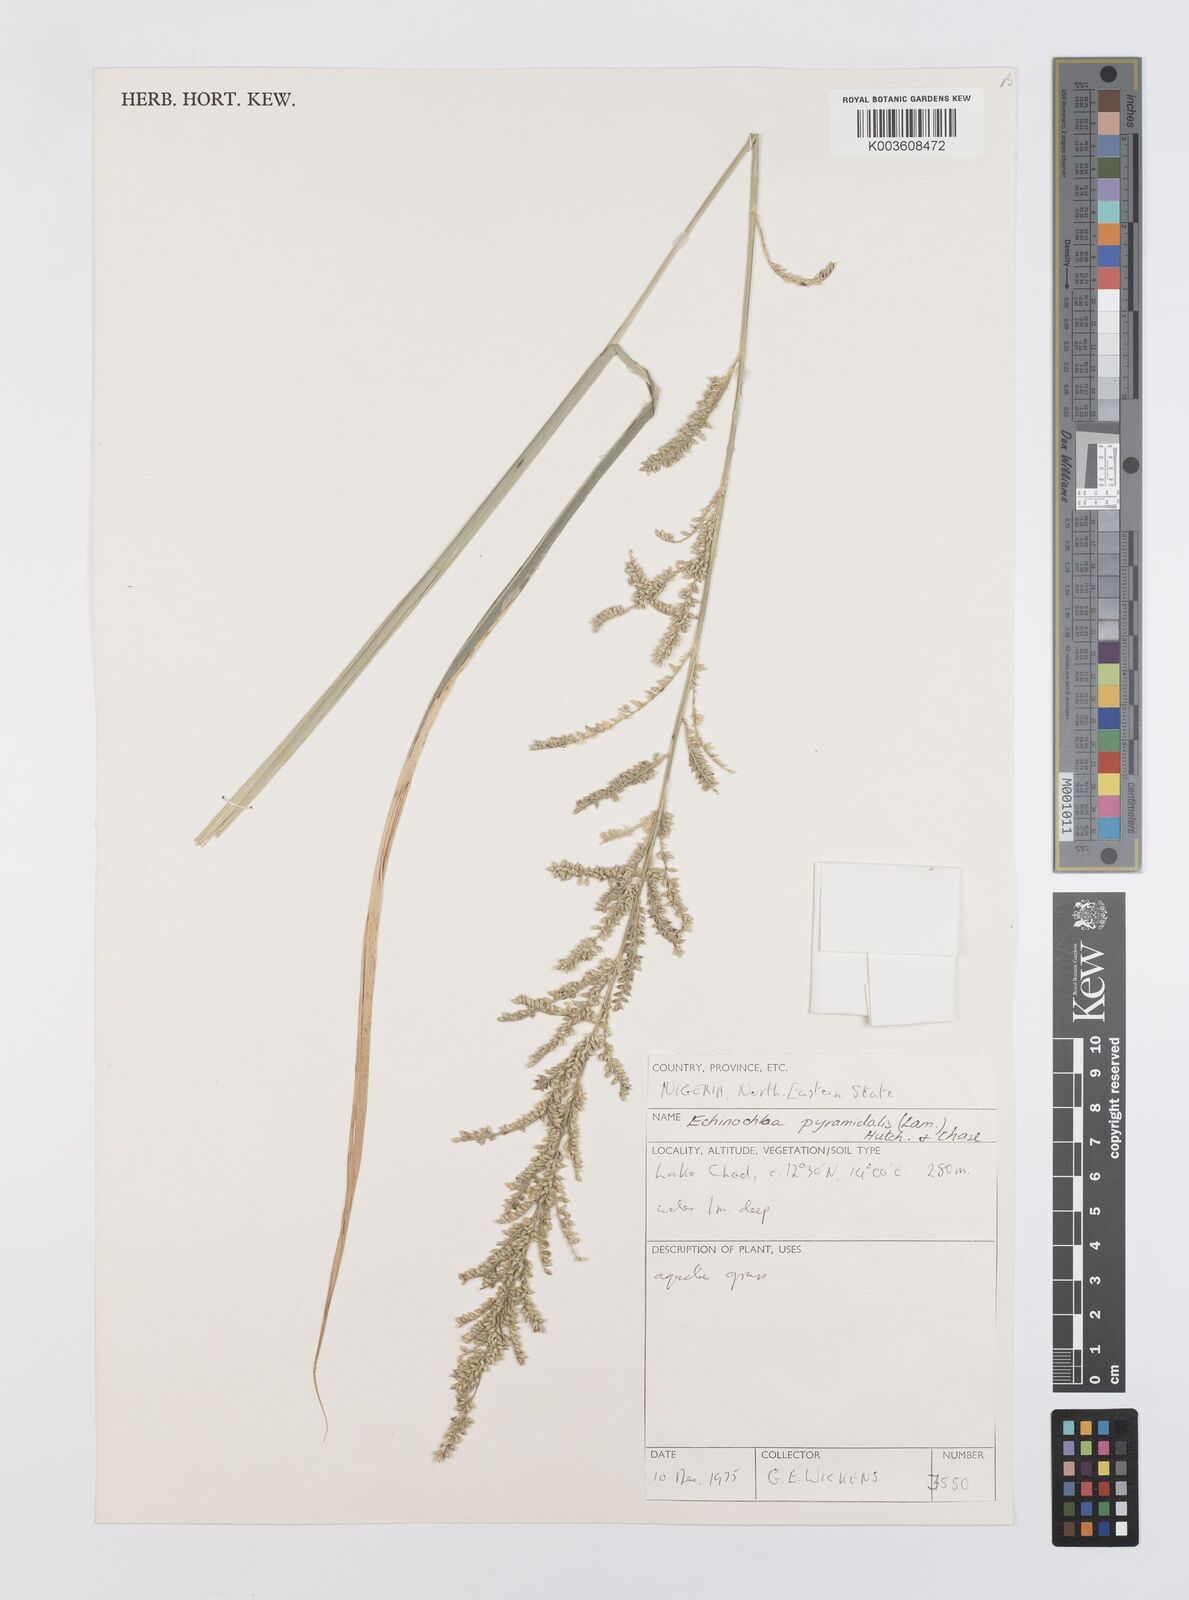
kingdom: Plantae
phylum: Tracheophyta
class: Liliopsida
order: Poales
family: Poaceae
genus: Echinochloa
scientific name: Echinochloa pyramidalis
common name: Antelope grass
